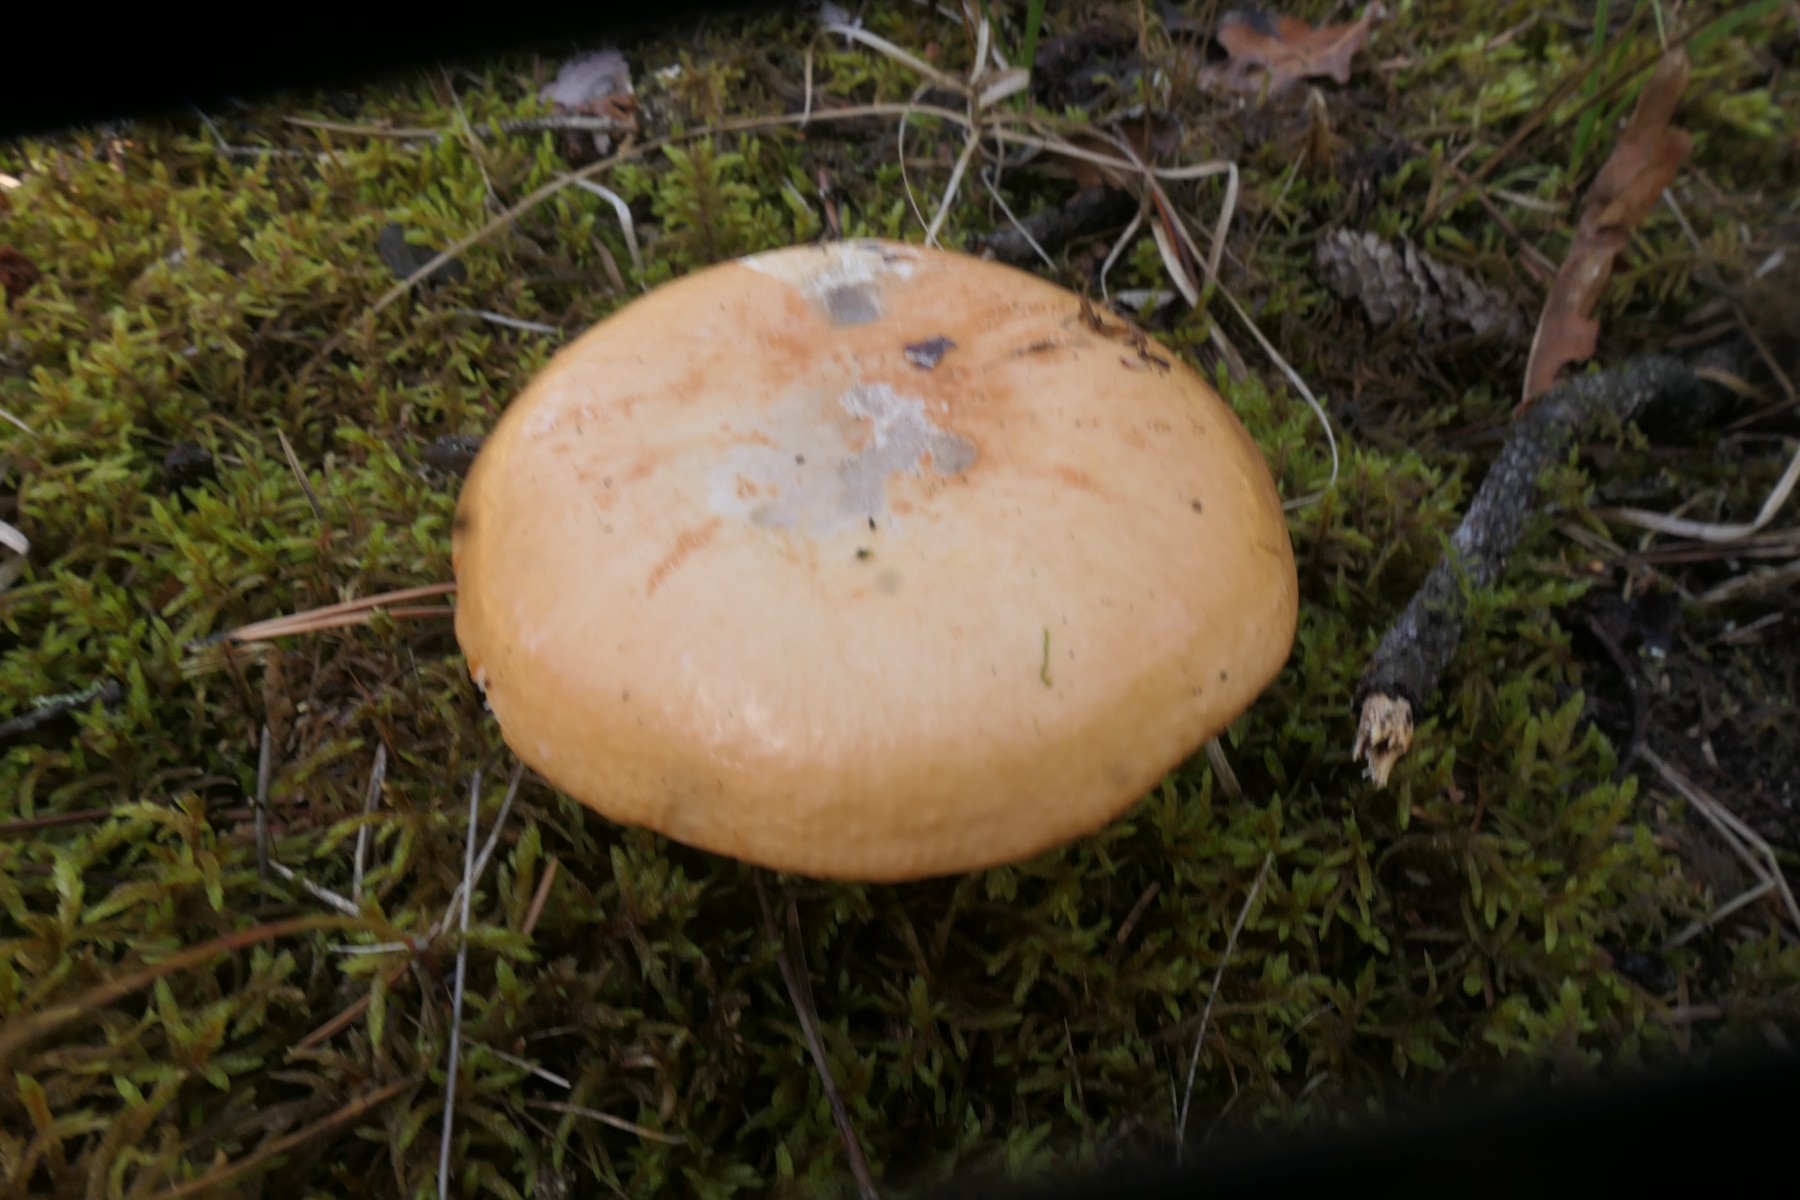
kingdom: Fungi
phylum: Basidiomycota
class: Agaricomycetes
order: Russulales
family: Russulaceae
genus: Russula
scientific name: Russula decolorans
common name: afblegende skørhat
